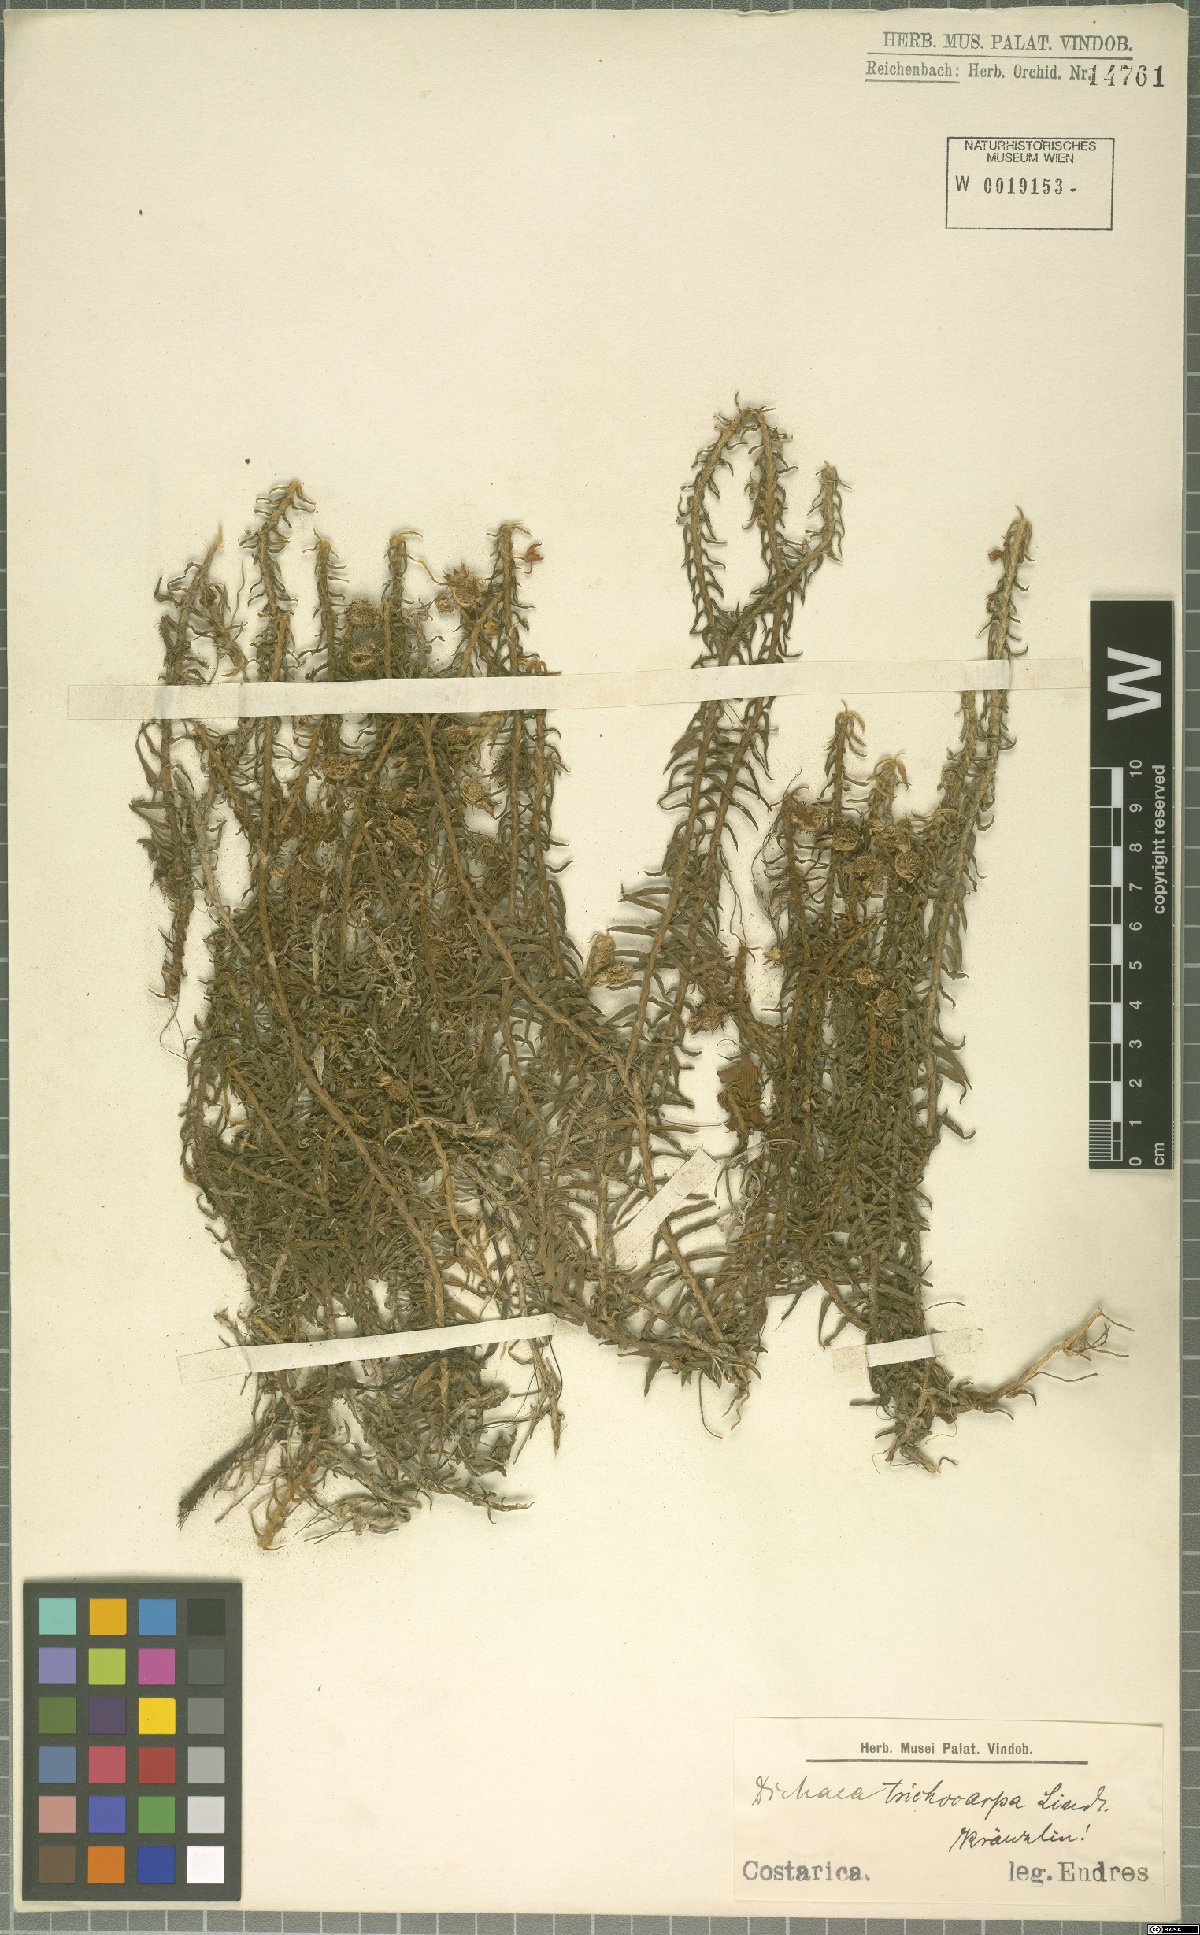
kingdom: Plantae
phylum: Tracheophyta
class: Liliopsida
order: Asparagales
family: Orchidaceae
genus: Dichaea
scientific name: Dichaea trichocarpa
